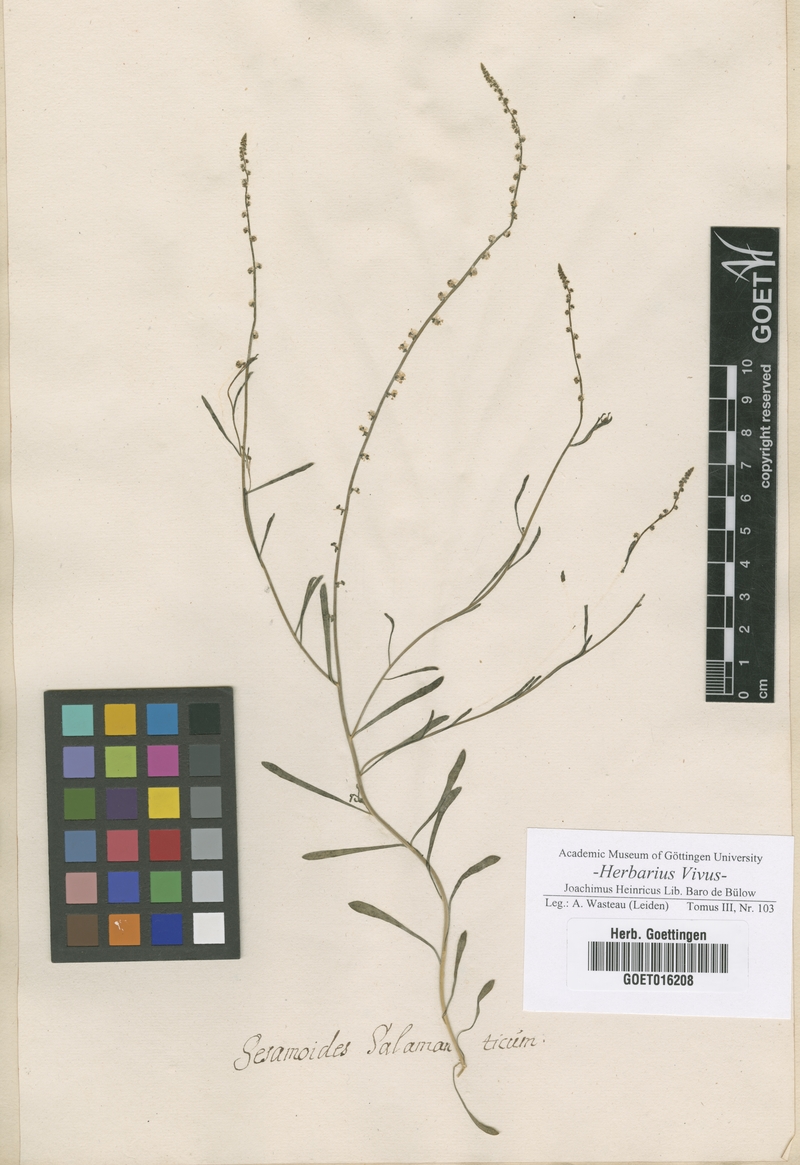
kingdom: Plantae
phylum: Tracheophyta
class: Magnoliopsida
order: Brassicales
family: Resedaceae
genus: Sesamoides
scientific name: Sesamoides interrupta
